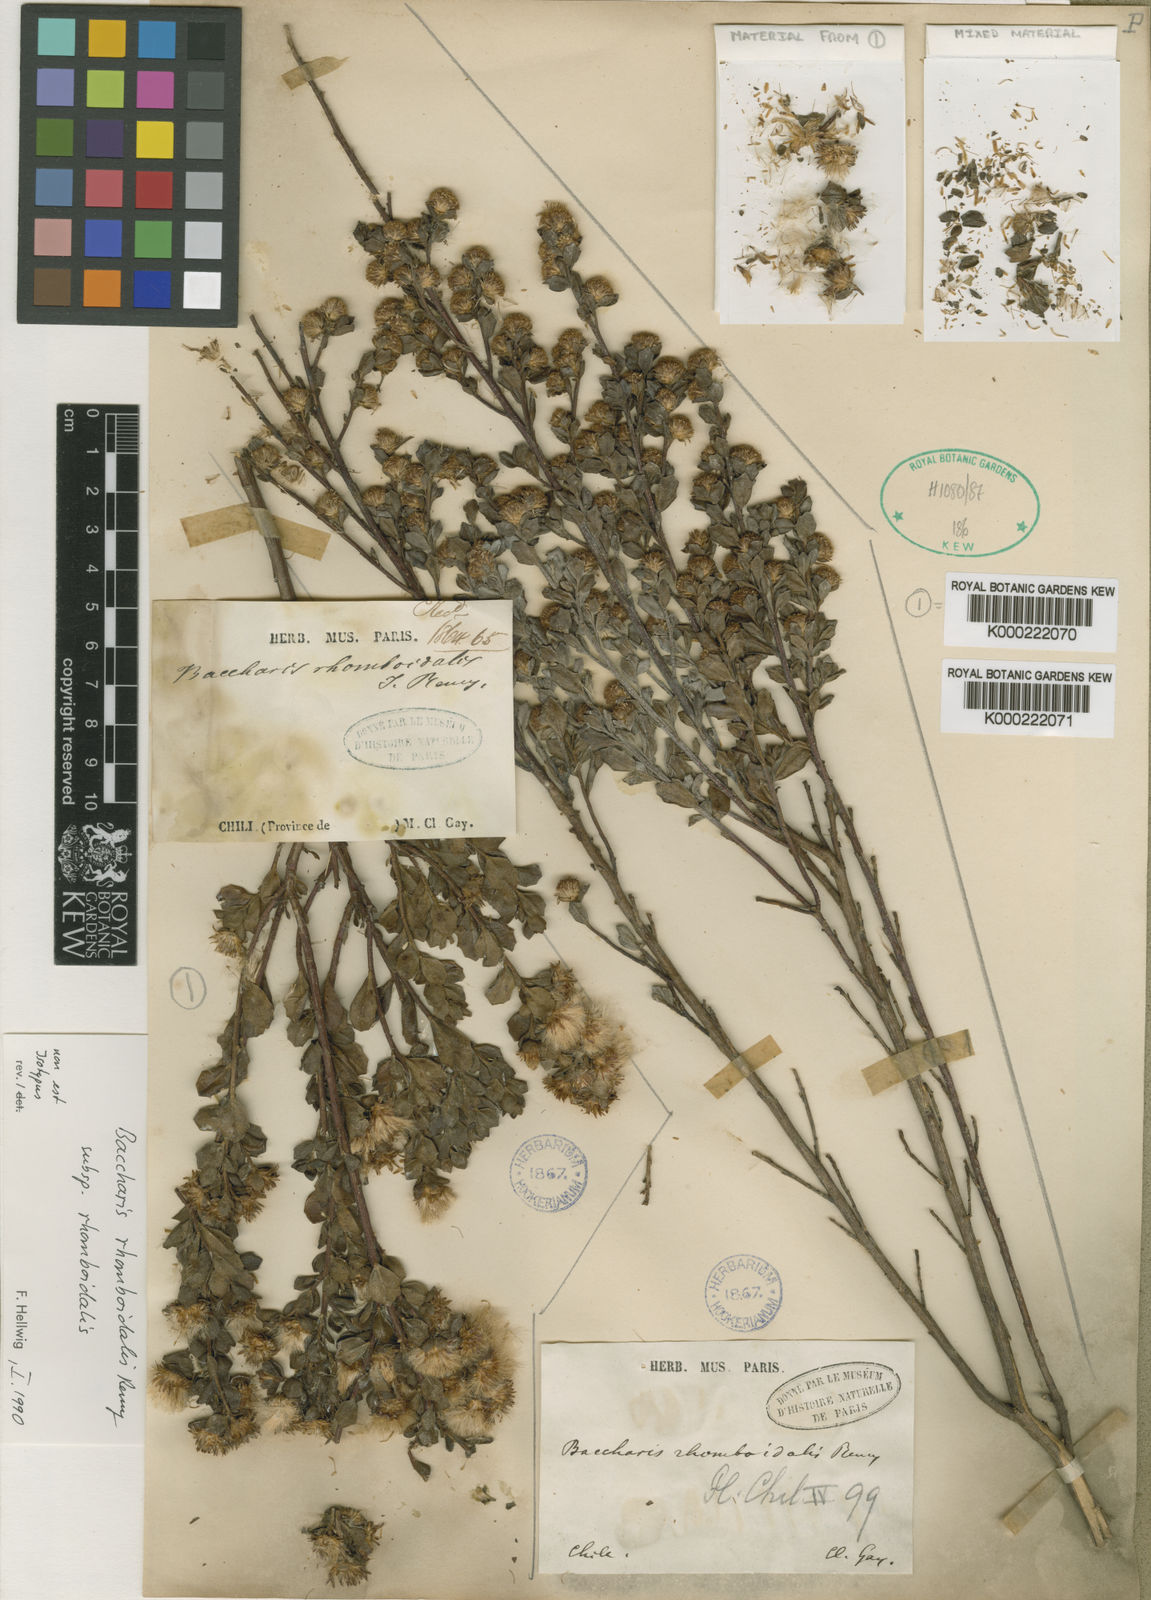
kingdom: Plantae
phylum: Tracheophyta
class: Magnoliopsida
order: Asterales
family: Asteraceae
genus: Baccharis
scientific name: Baccharis rhomboidalis
